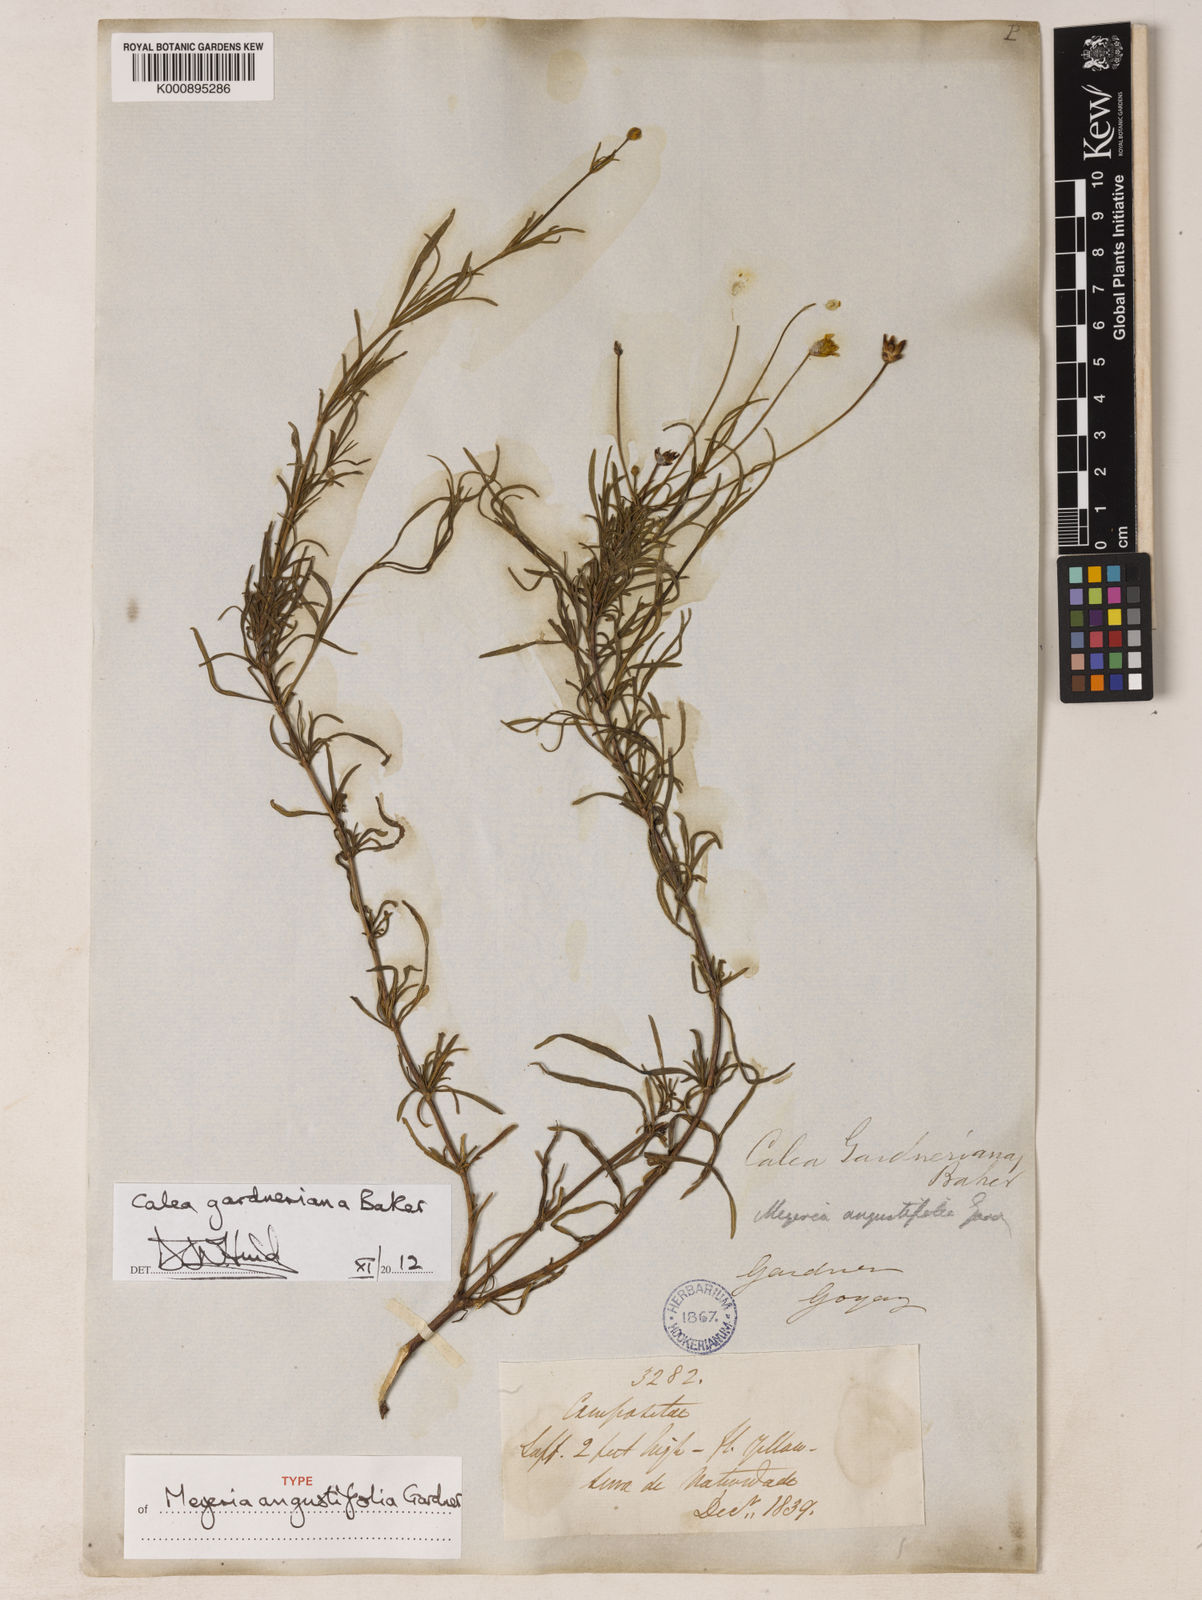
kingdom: Plantae
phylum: Tracheophyta
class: Magnoliopsida
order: Asterales
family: Asteraceae
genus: Calea
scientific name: Calea gardneriana
